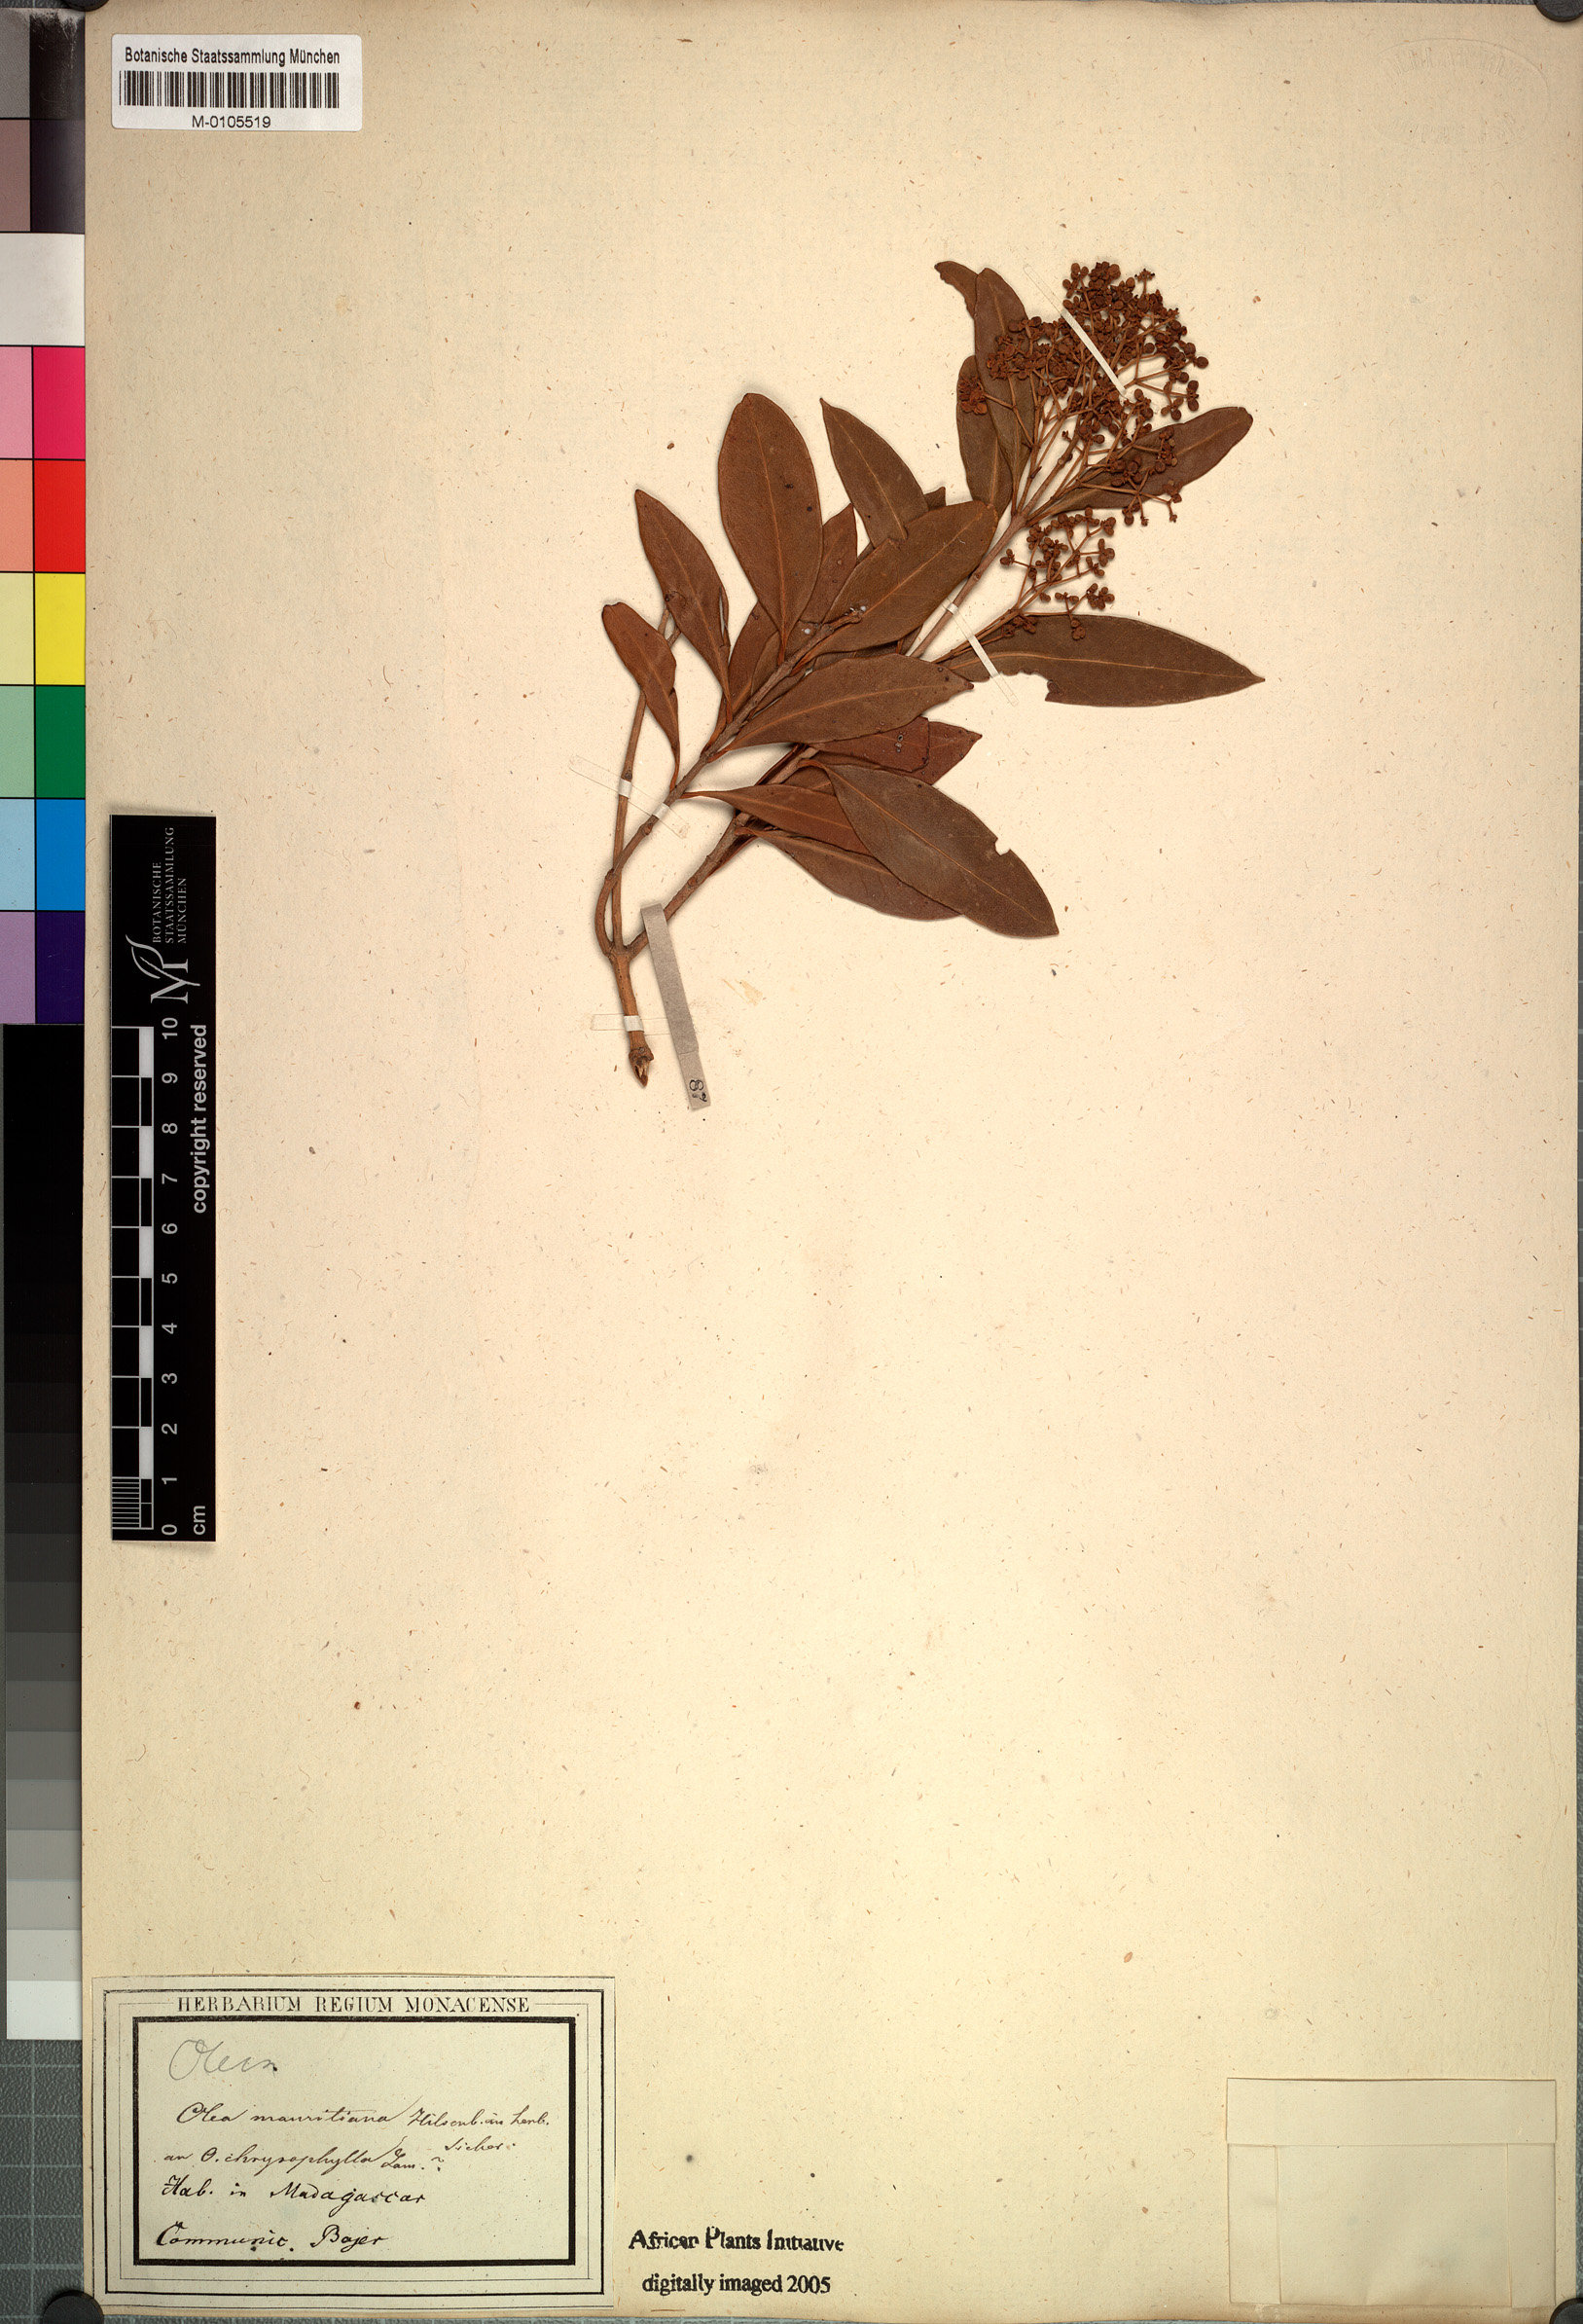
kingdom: Plantae
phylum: Tracheophyta
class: Magnoliopsida
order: Lamiales
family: Oleaceae
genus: Olea
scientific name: Olea lancea
